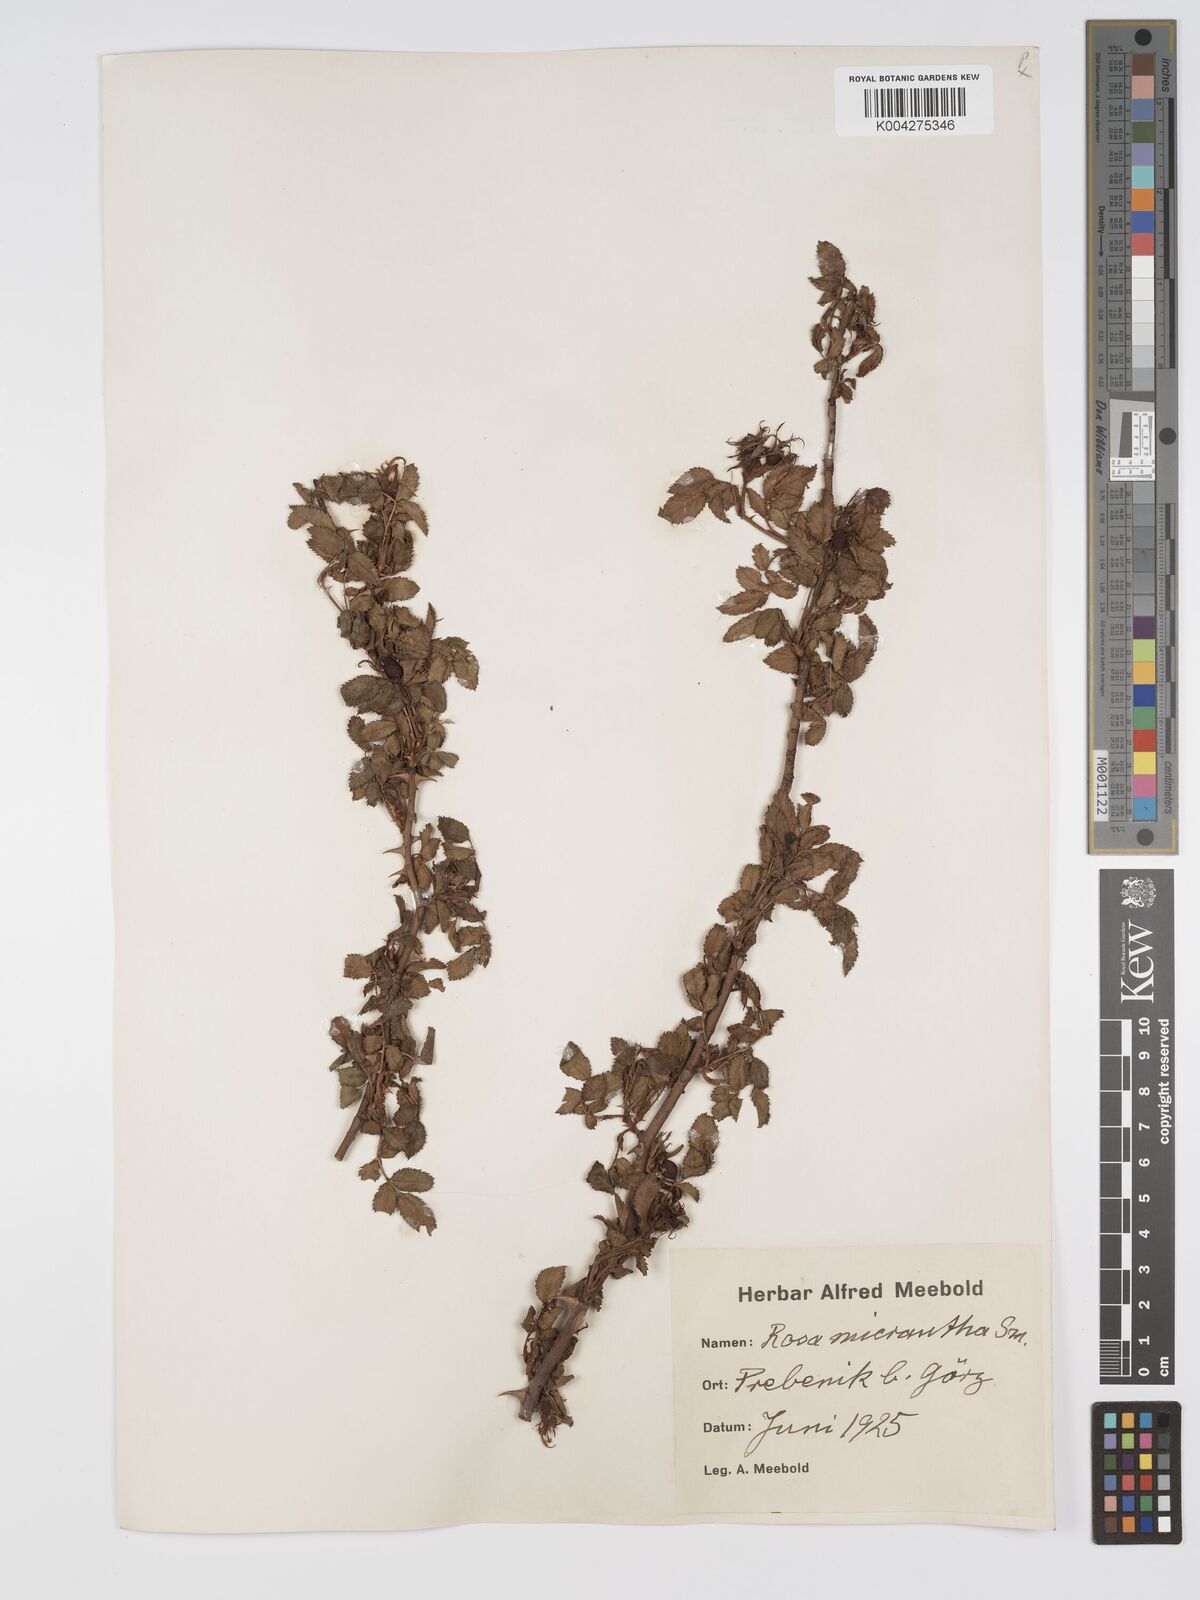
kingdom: Plantae
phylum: Tracheophyta
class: Magnoliopsida
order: Rosales
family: Rosaceae
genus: Rosa
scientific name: Rosa
